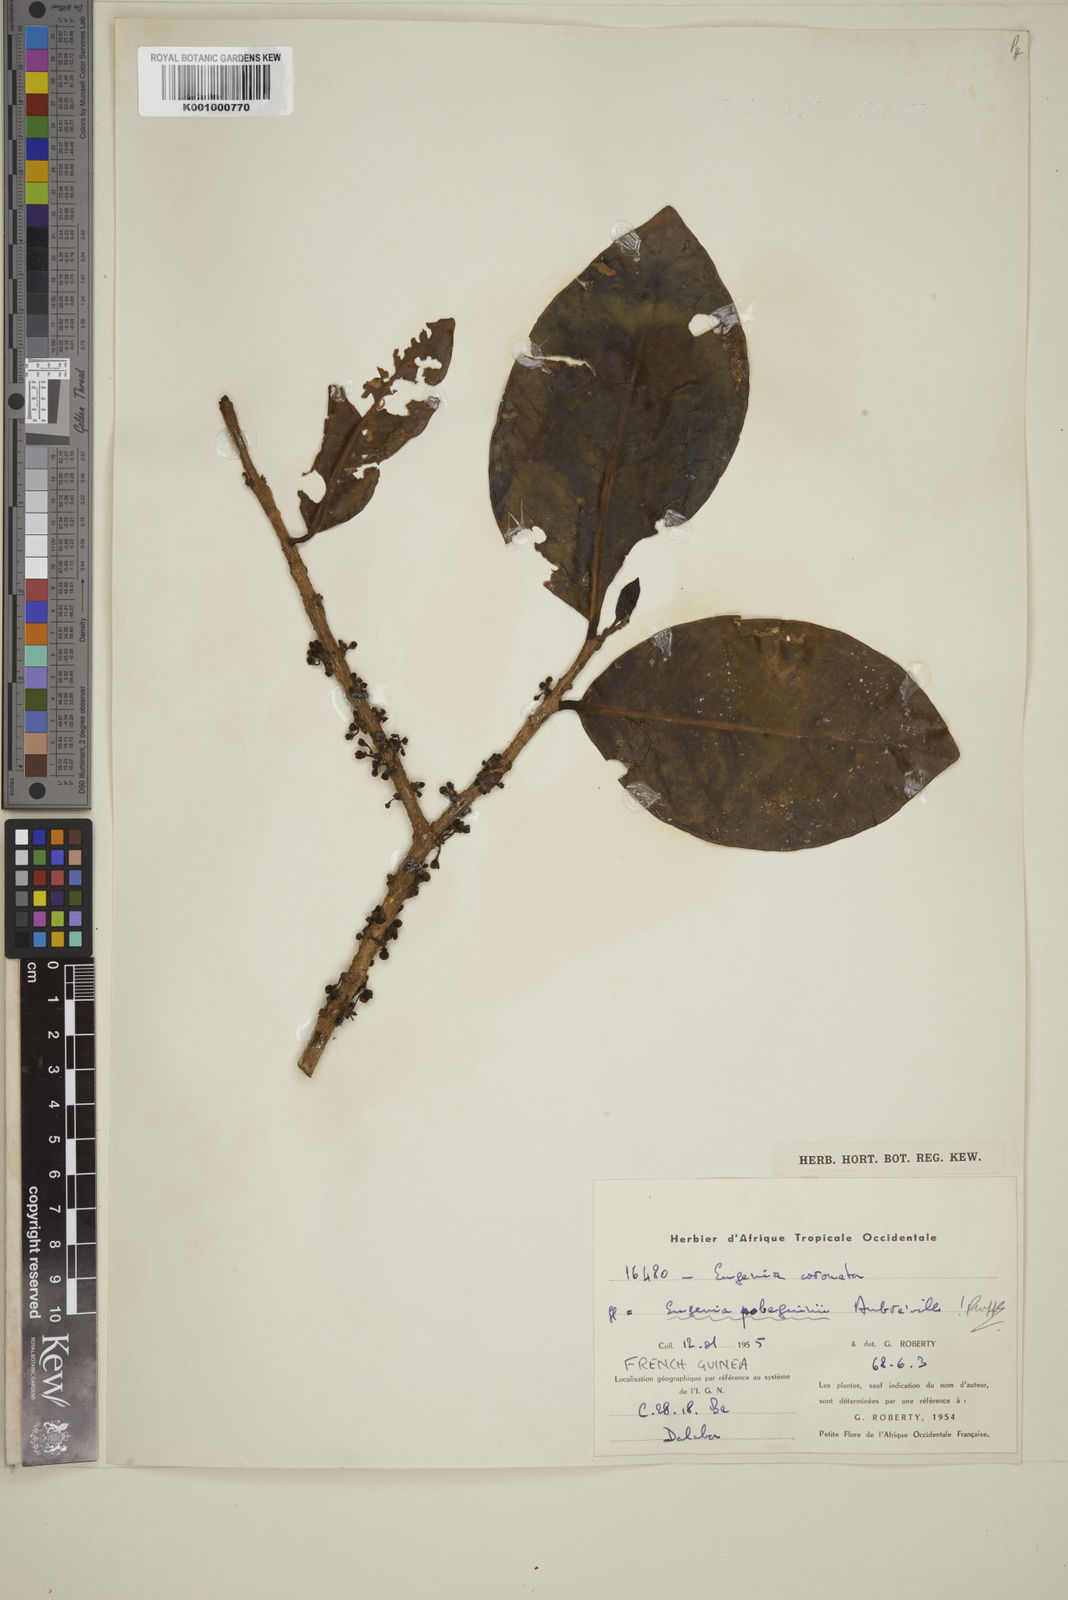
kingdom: Plantae
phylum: Tracheophyta
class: Magnoliopsida
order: Myrtales
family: Myrtaceae
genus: Eugenia
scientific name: Eugenia
